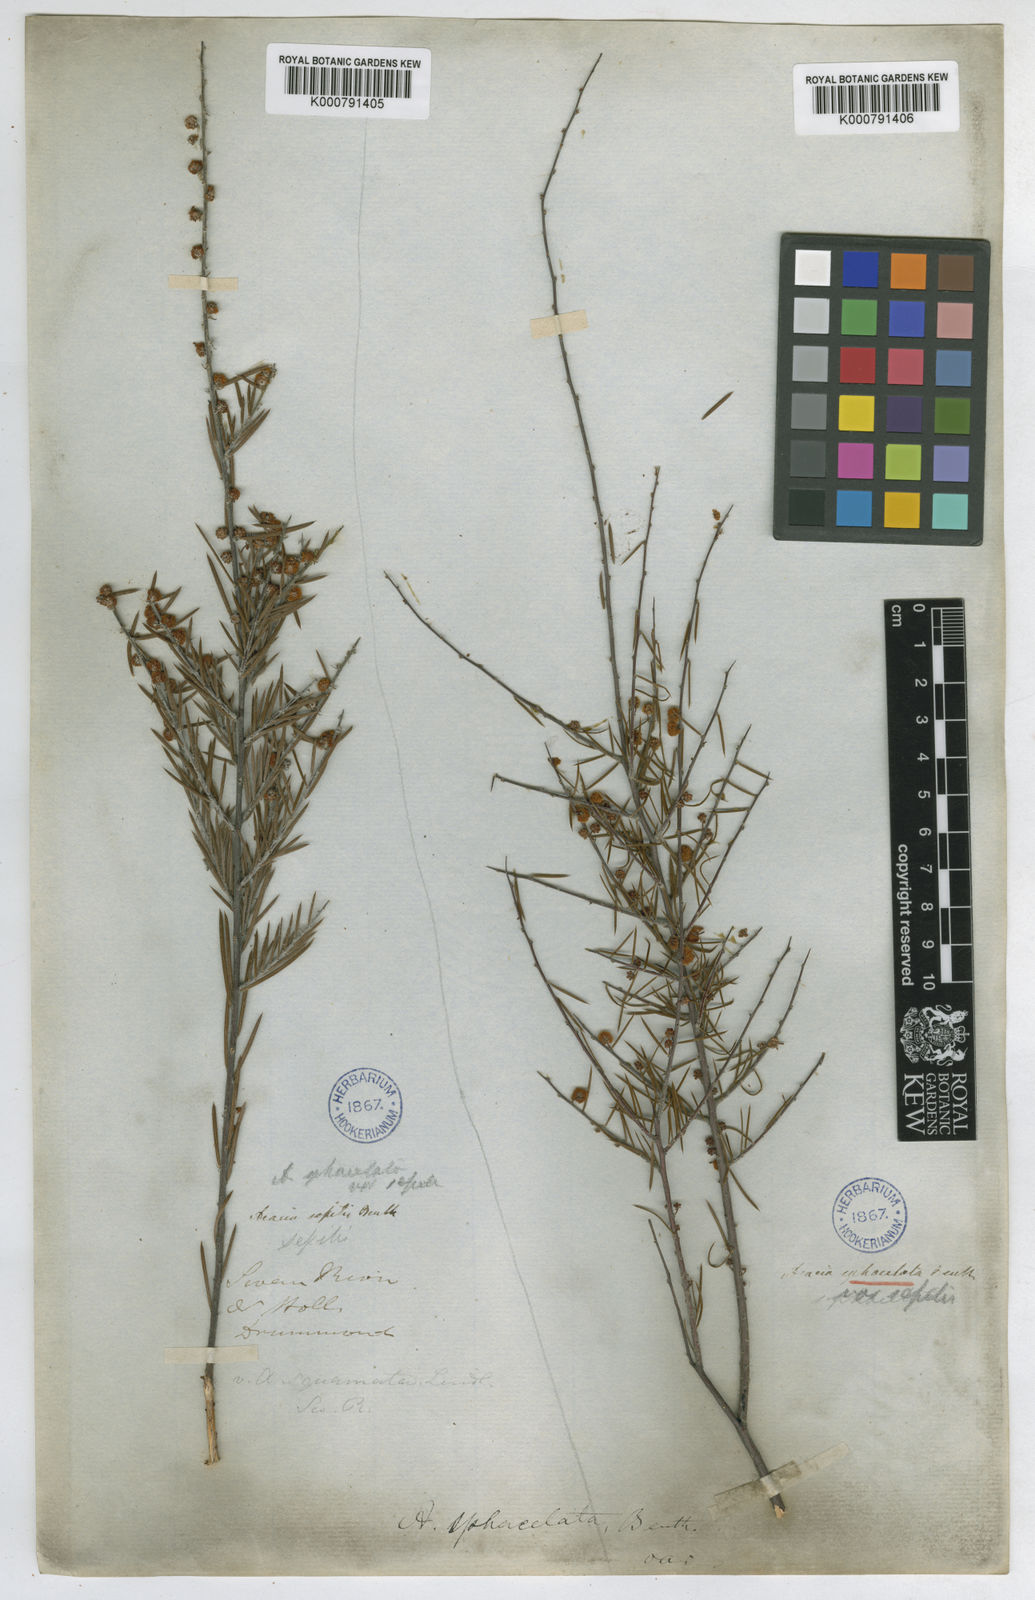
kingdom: Plantae
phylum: Tracheophyta
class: Magnoliopsida
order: Fabales
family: Fabaceae
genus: Acacia
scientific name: Acacia sphacelata
